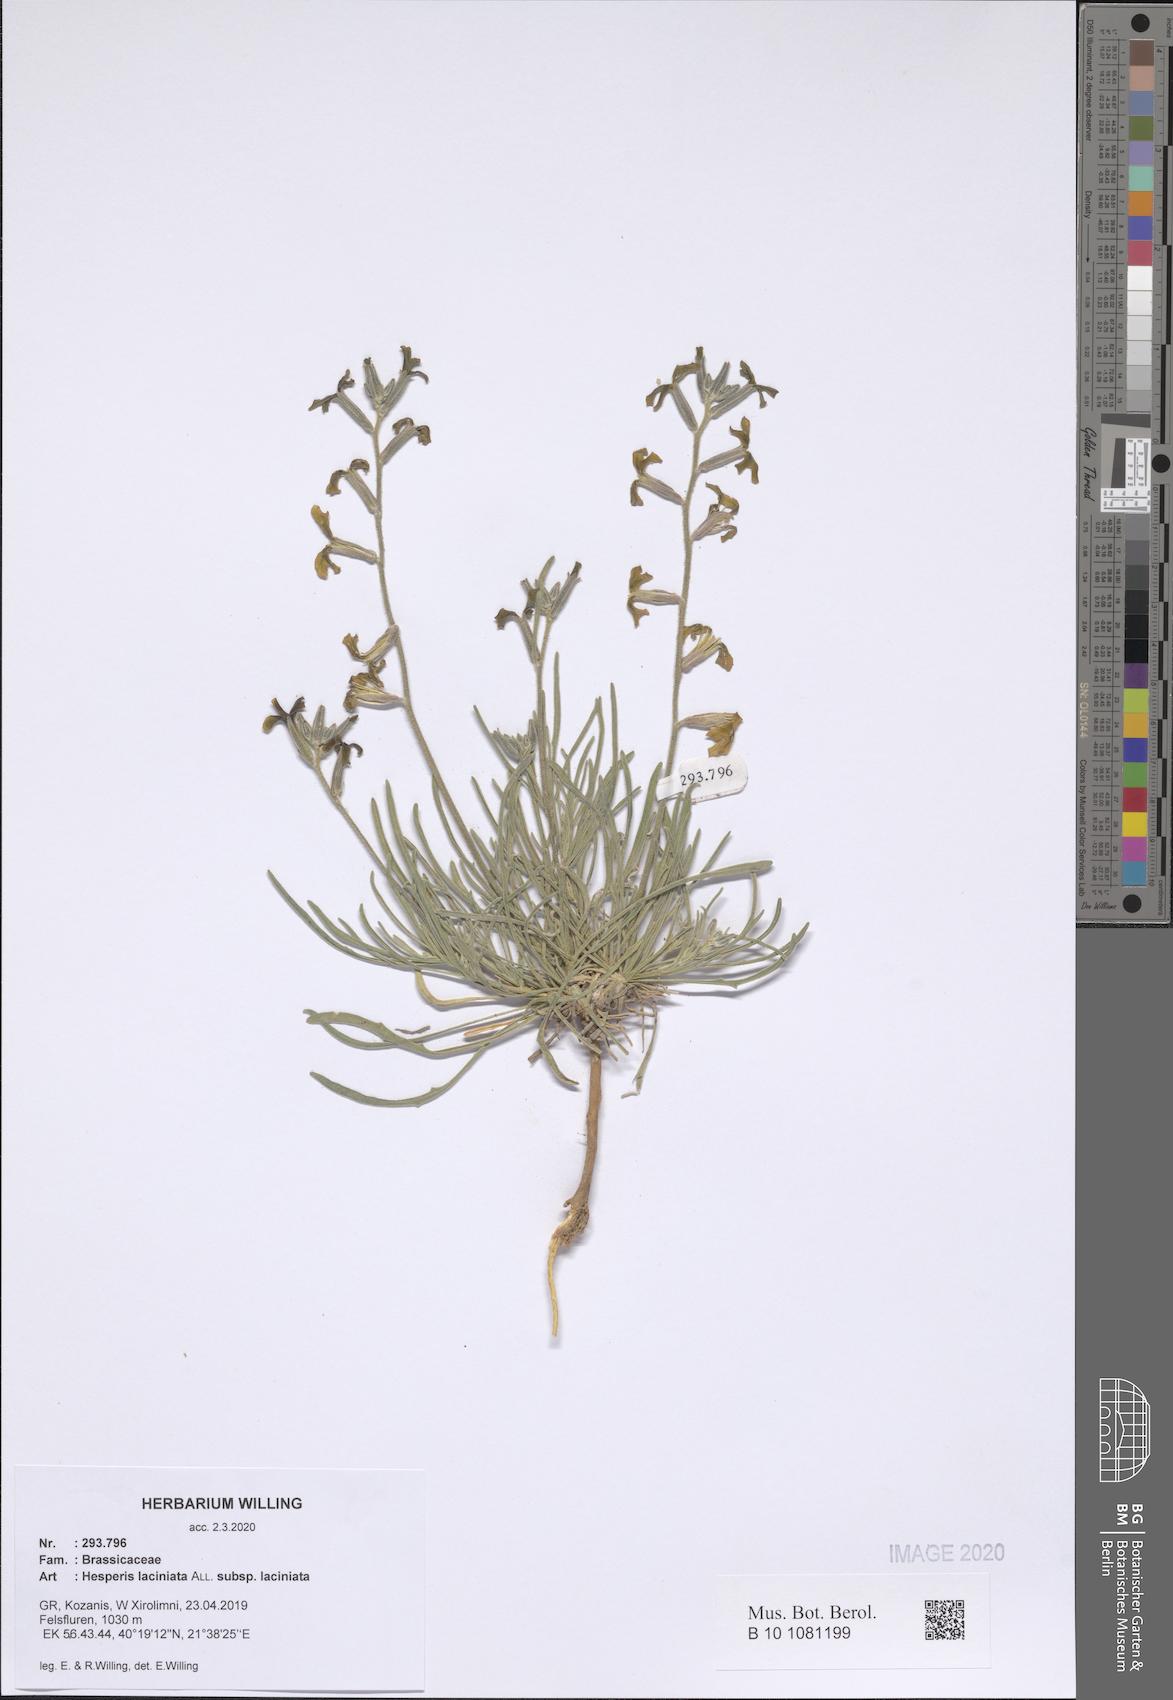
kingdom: Plantae
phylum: Tracheophyta
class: Magnoliopsida
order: Brassicales
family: Brassicaceae
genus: Hesperis
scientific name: Hesperis laciniata
